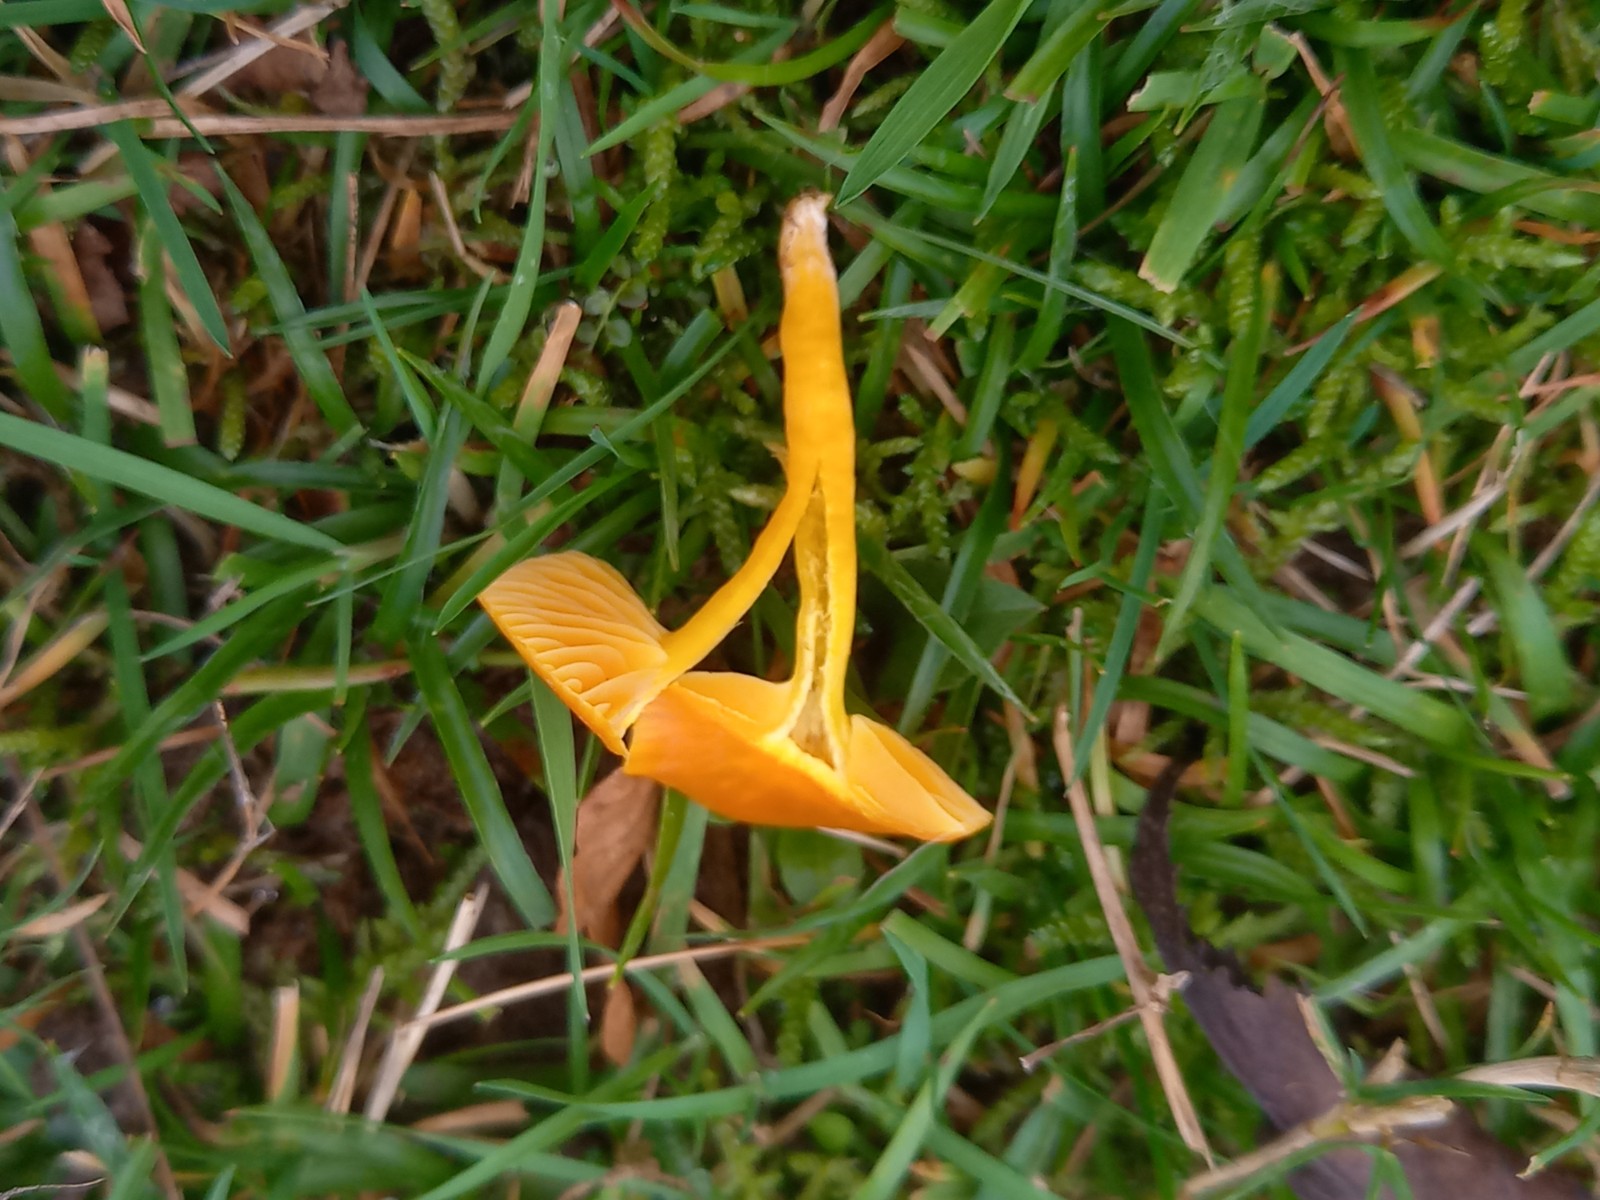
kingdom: Fungi
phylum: Basidiomycota
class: Agaricomycetes
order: Agaricales
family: Hygrophoraceae
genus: Hygrocybe
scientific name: Hygrocybe ceracea
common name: voksgul vokshat
